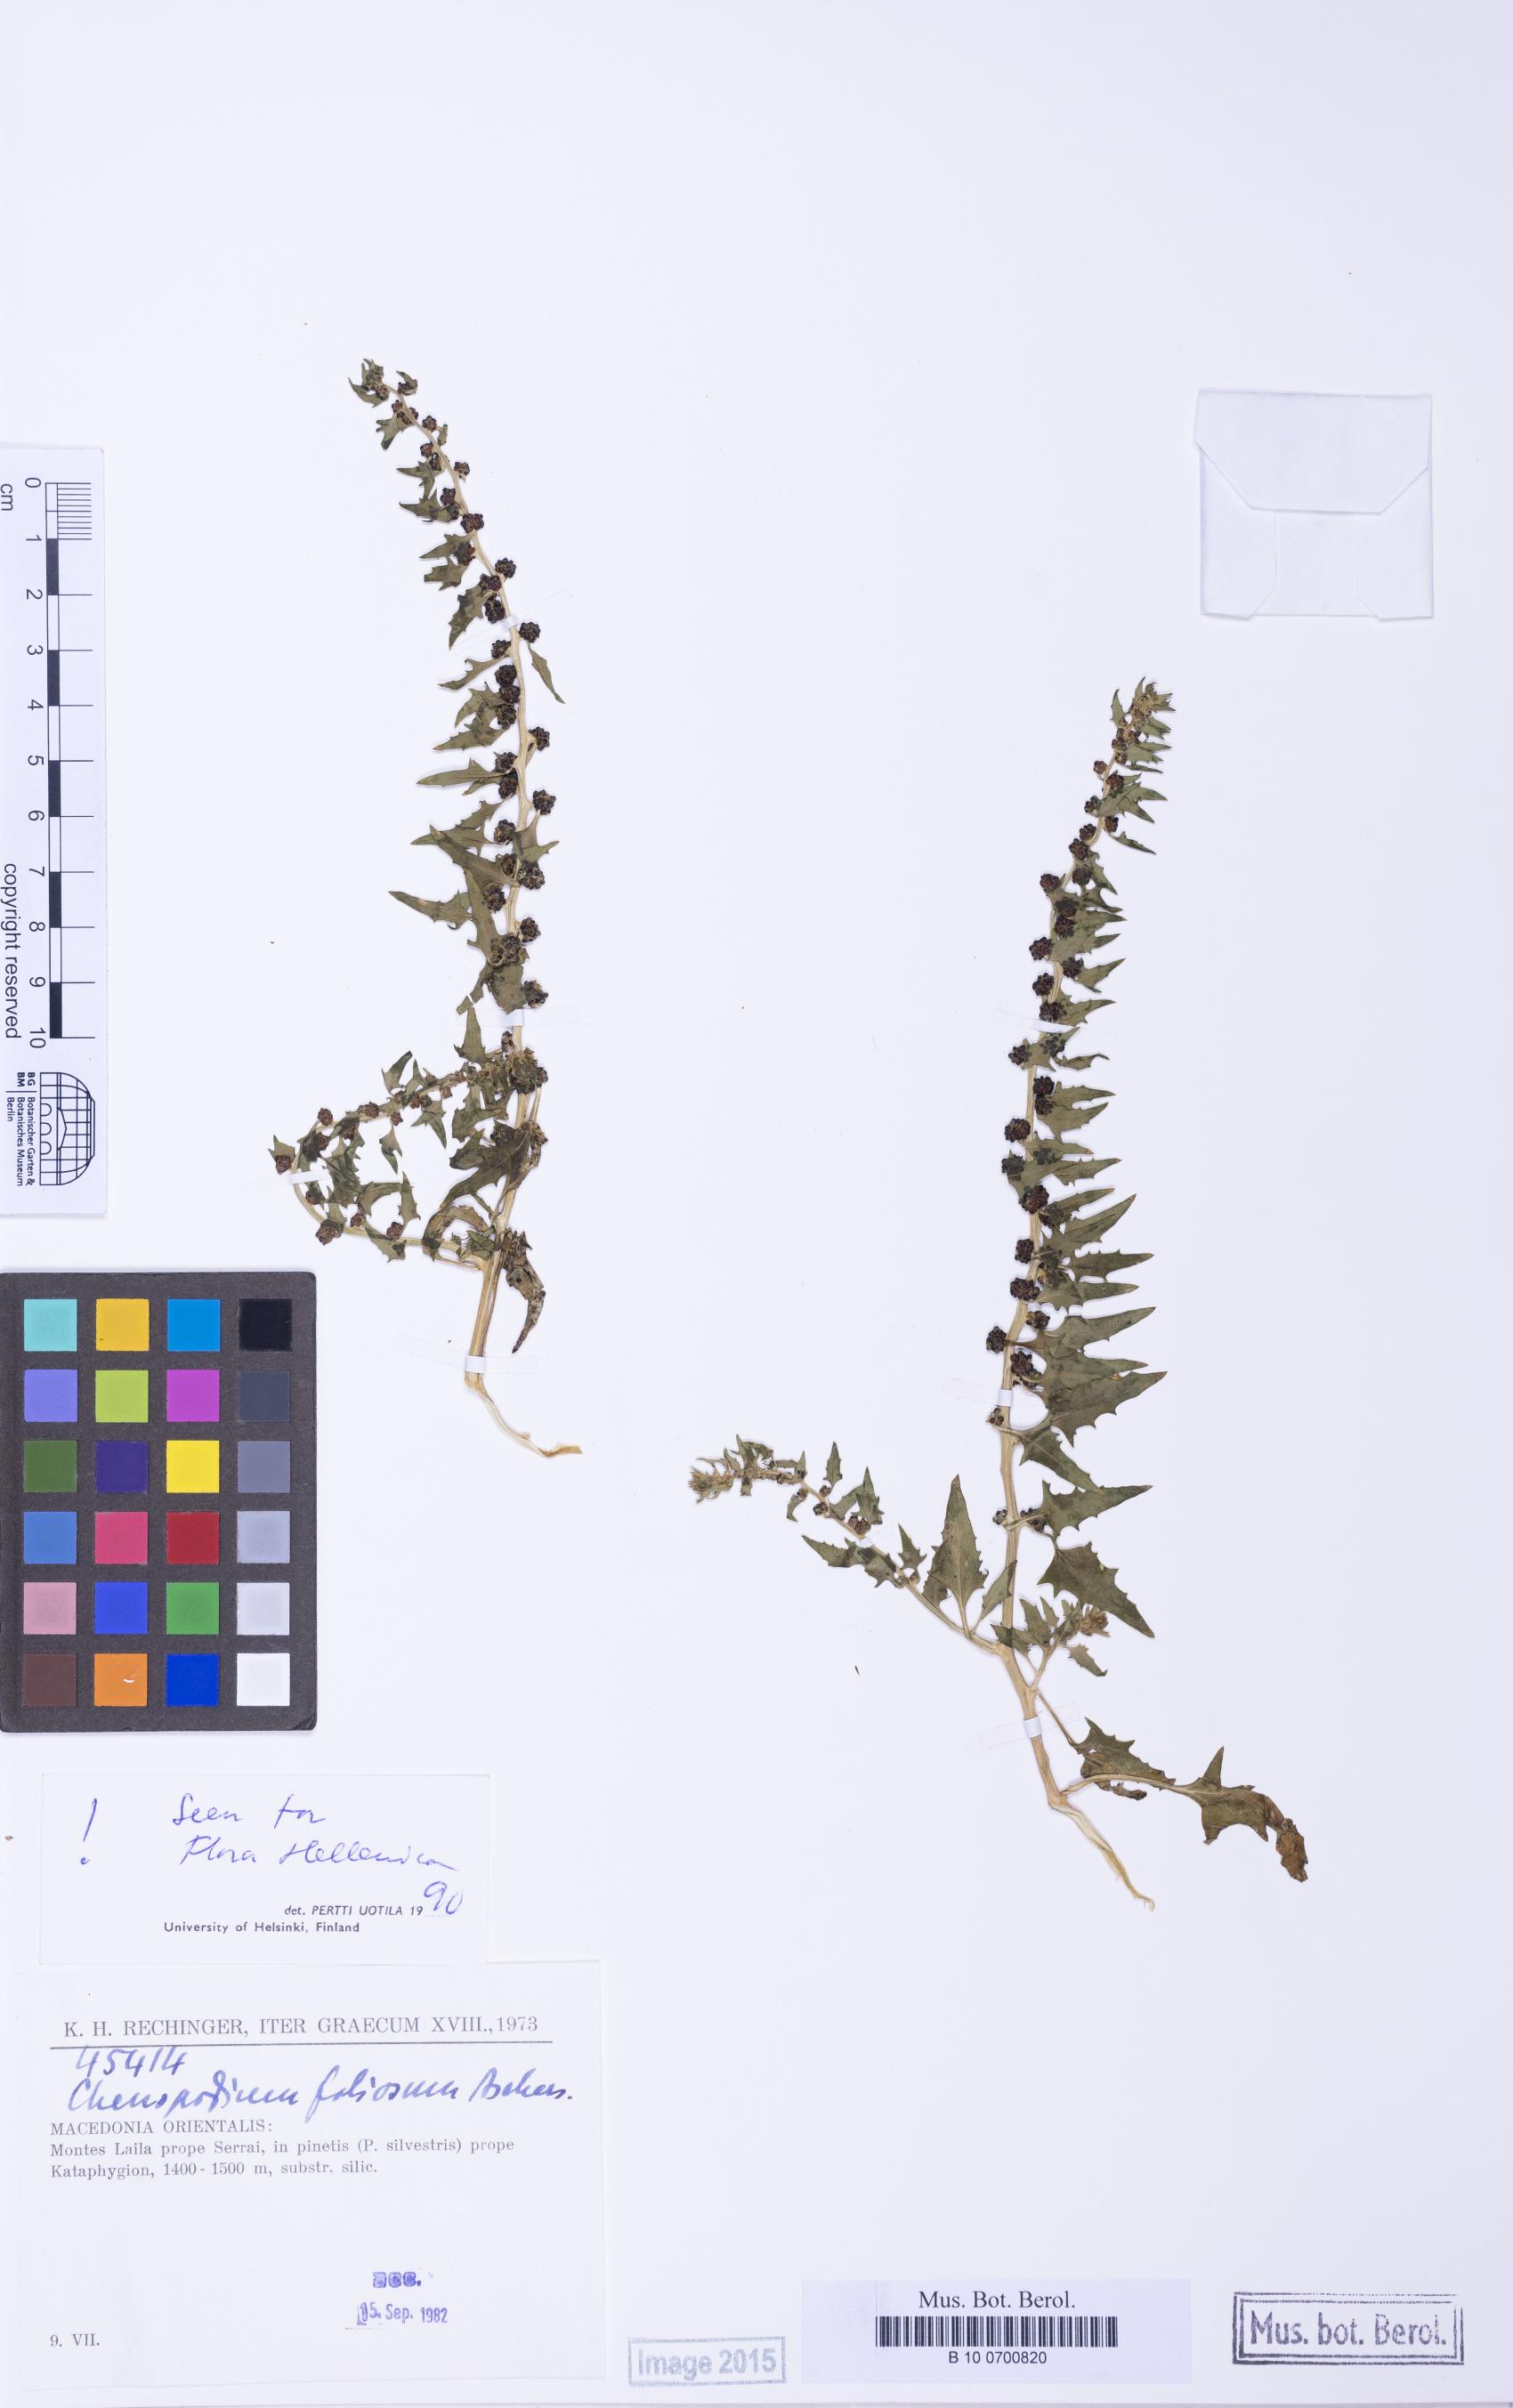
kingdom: Plantae
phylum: Tracheophyta
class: Magnoliopsida
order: Caryophyllales
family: Amaranthaceae
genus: Blitum
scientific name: Blitum virgatum
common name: Strawberry goosefoot
